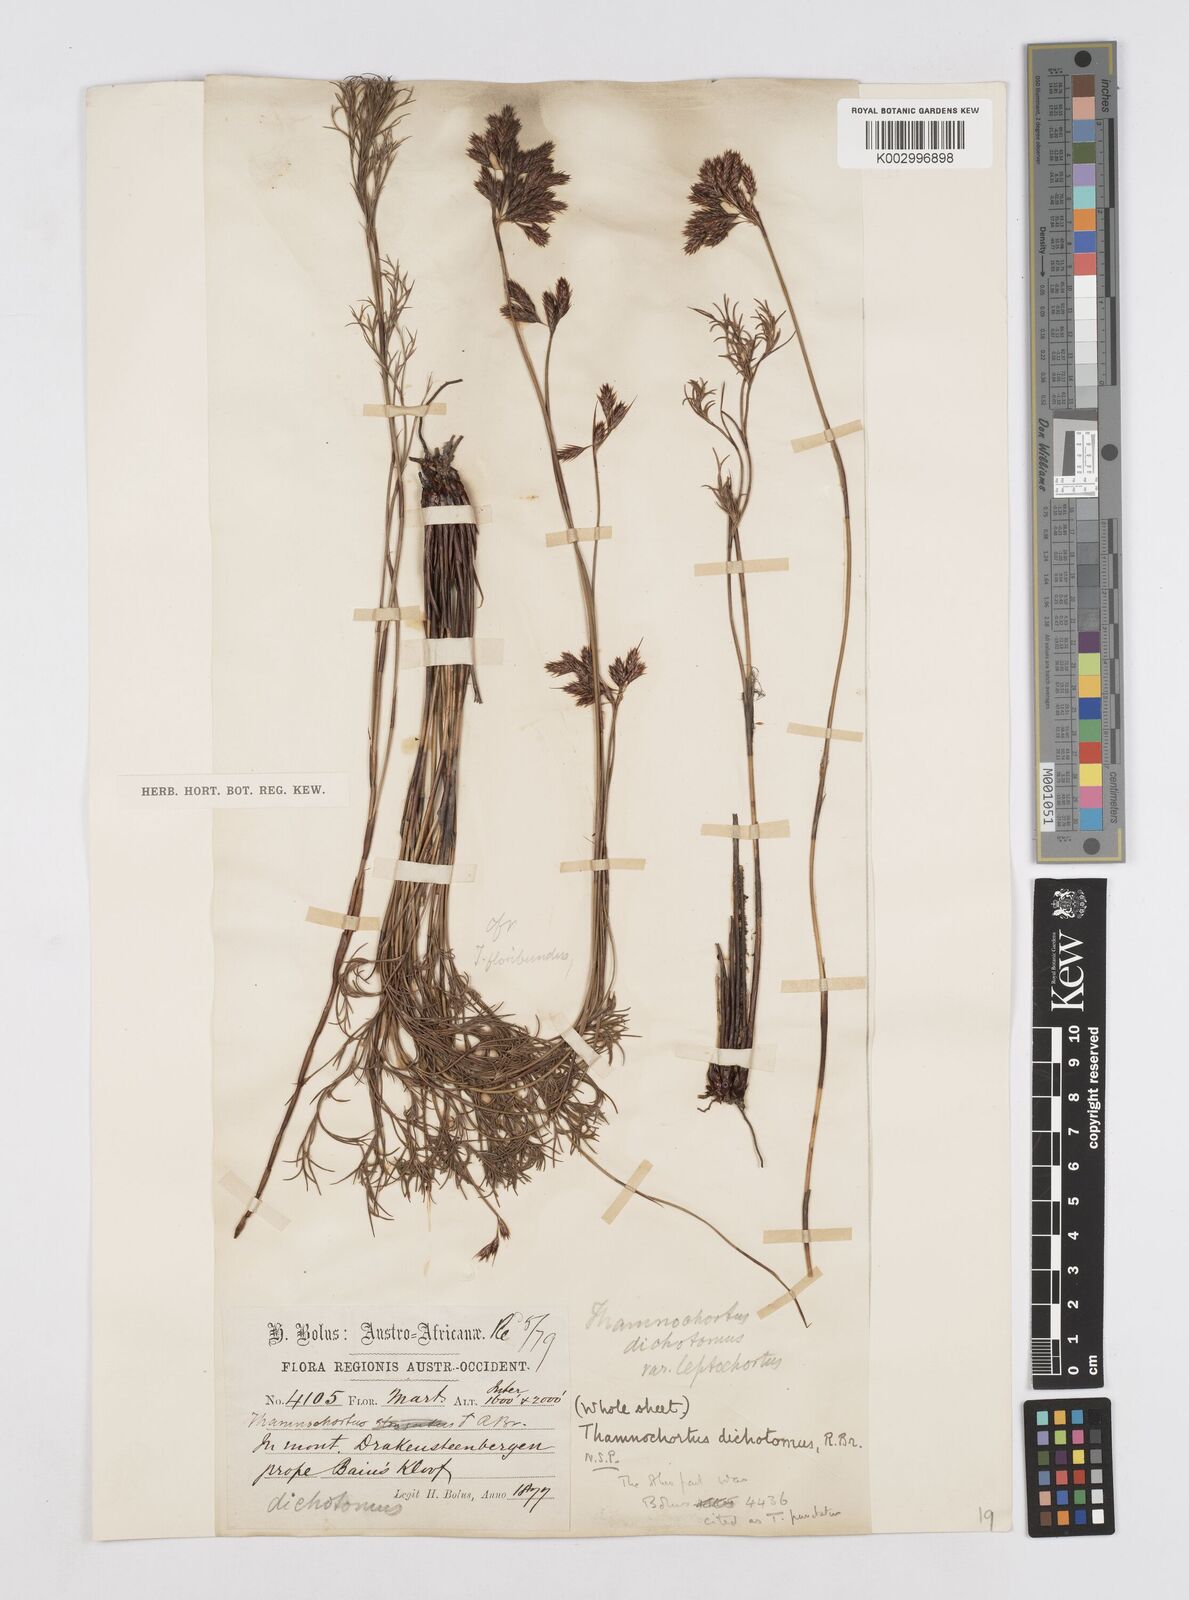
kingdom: Plantae
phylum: Tracheophyta
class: Liliopsida
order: Poales
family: Restionaceae
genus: Thamnochortus
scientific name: Thamnochortus lucens
